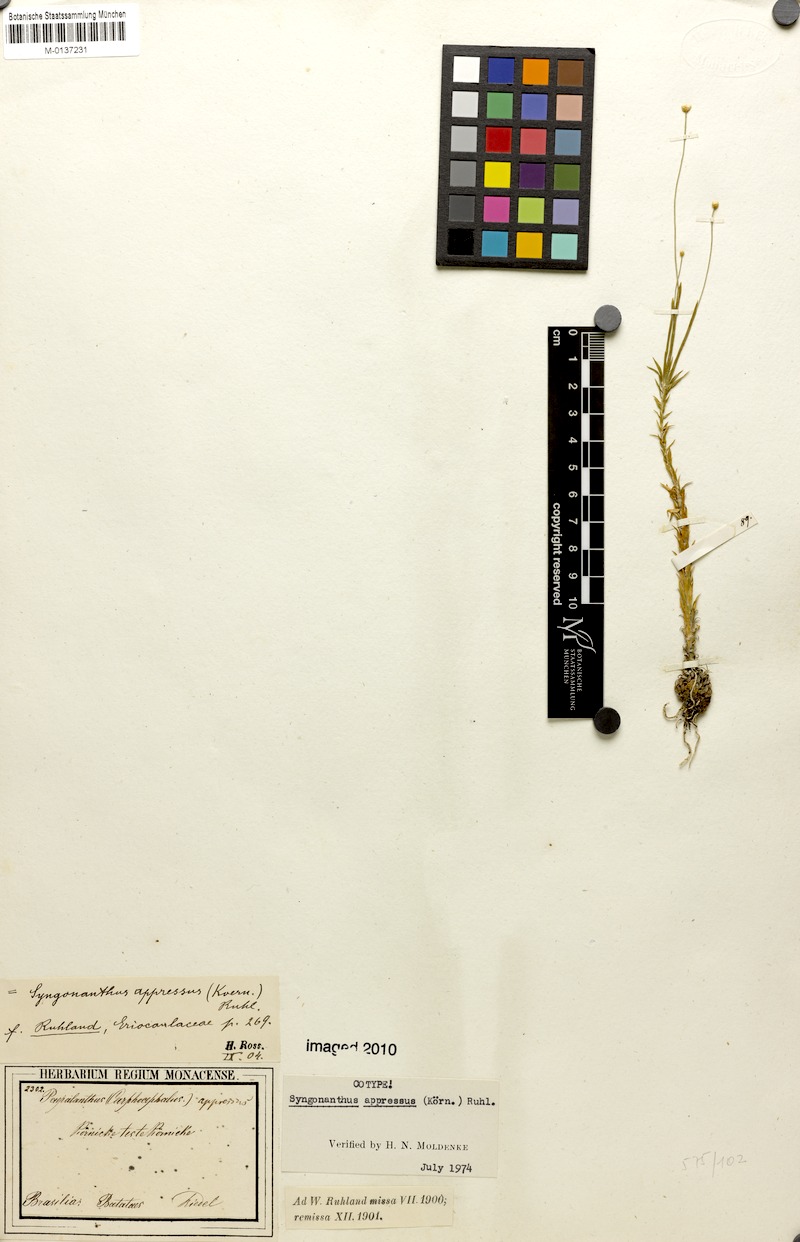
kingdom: Plantae
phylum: Tracheophyta
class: Liliopsida
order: Poales
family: Eriocaulaceae
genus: Syngonanthus
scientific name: Syngonanthus appressus
